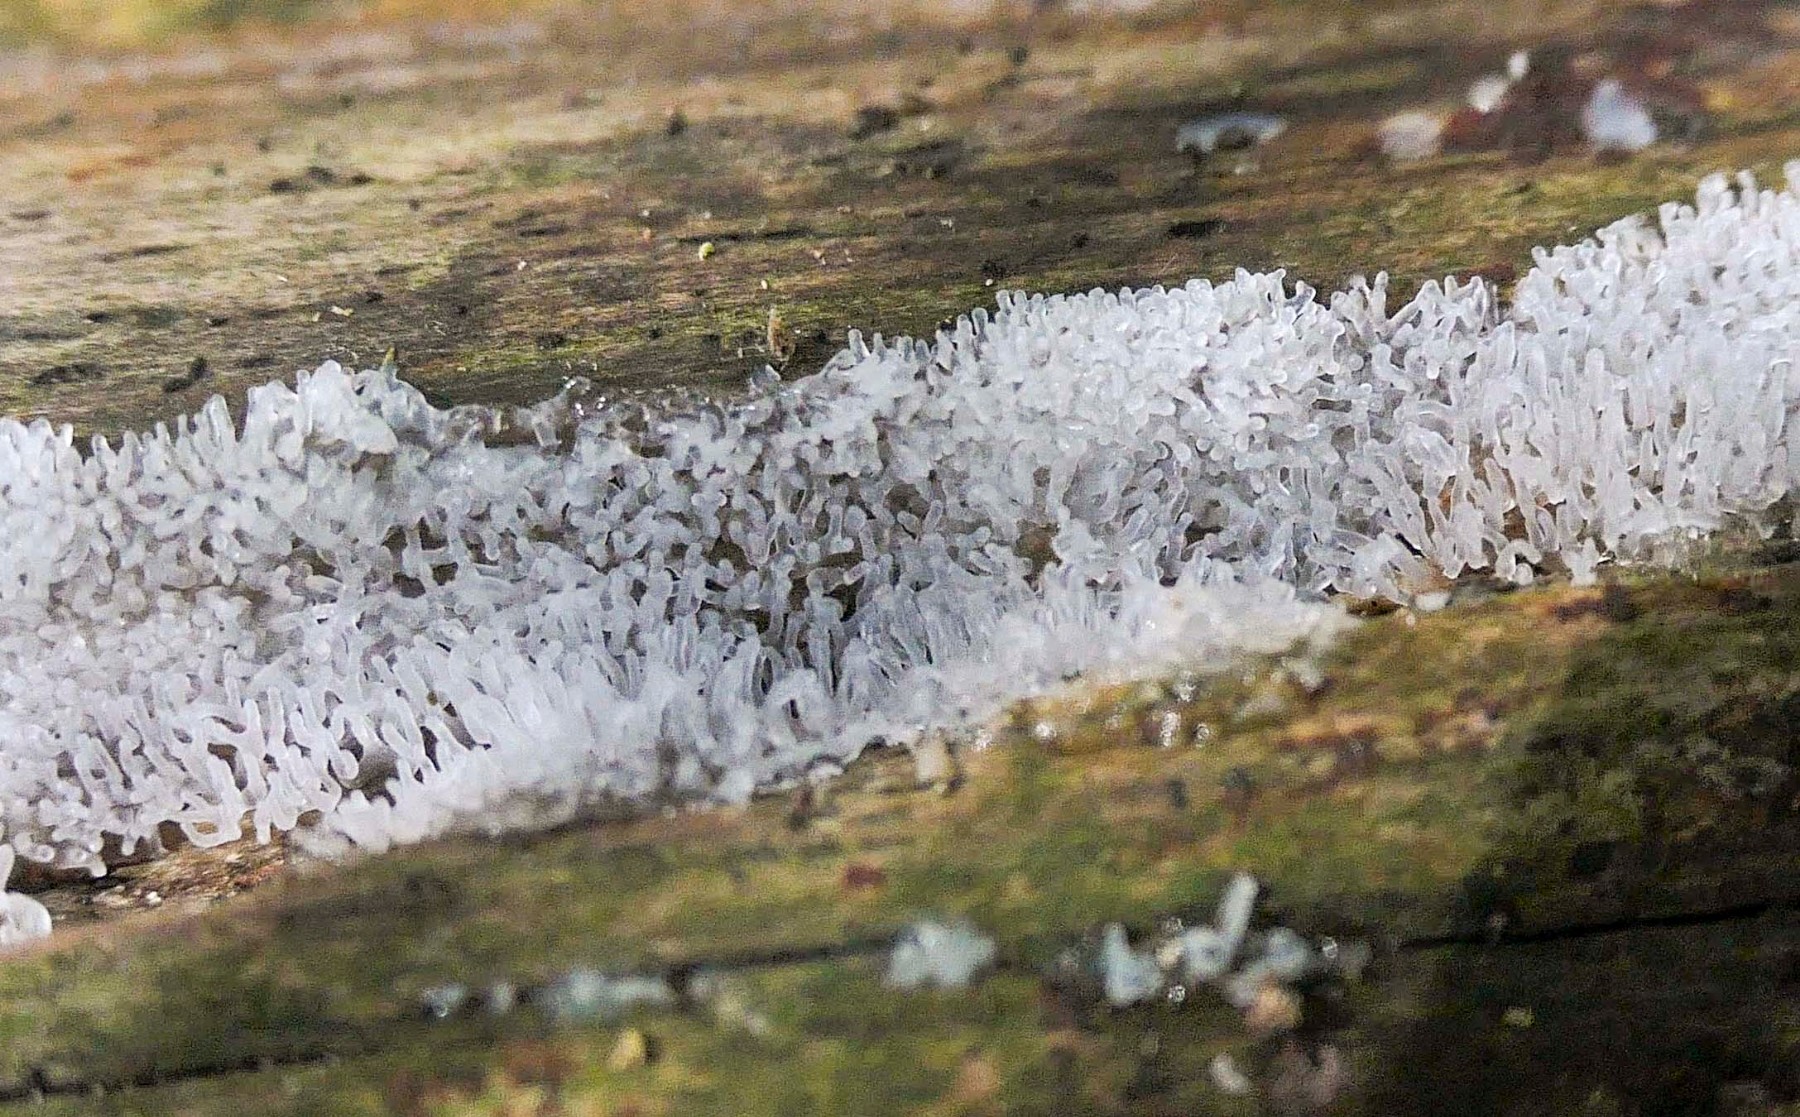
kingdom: Protozoa
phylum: Mycetozoa
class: Protosteliomycetes
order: Ceratiomyxales
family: Ceratiomyxaceae
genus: Ceratiomyxa
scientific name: Ceratiomyxa fruticulosa
